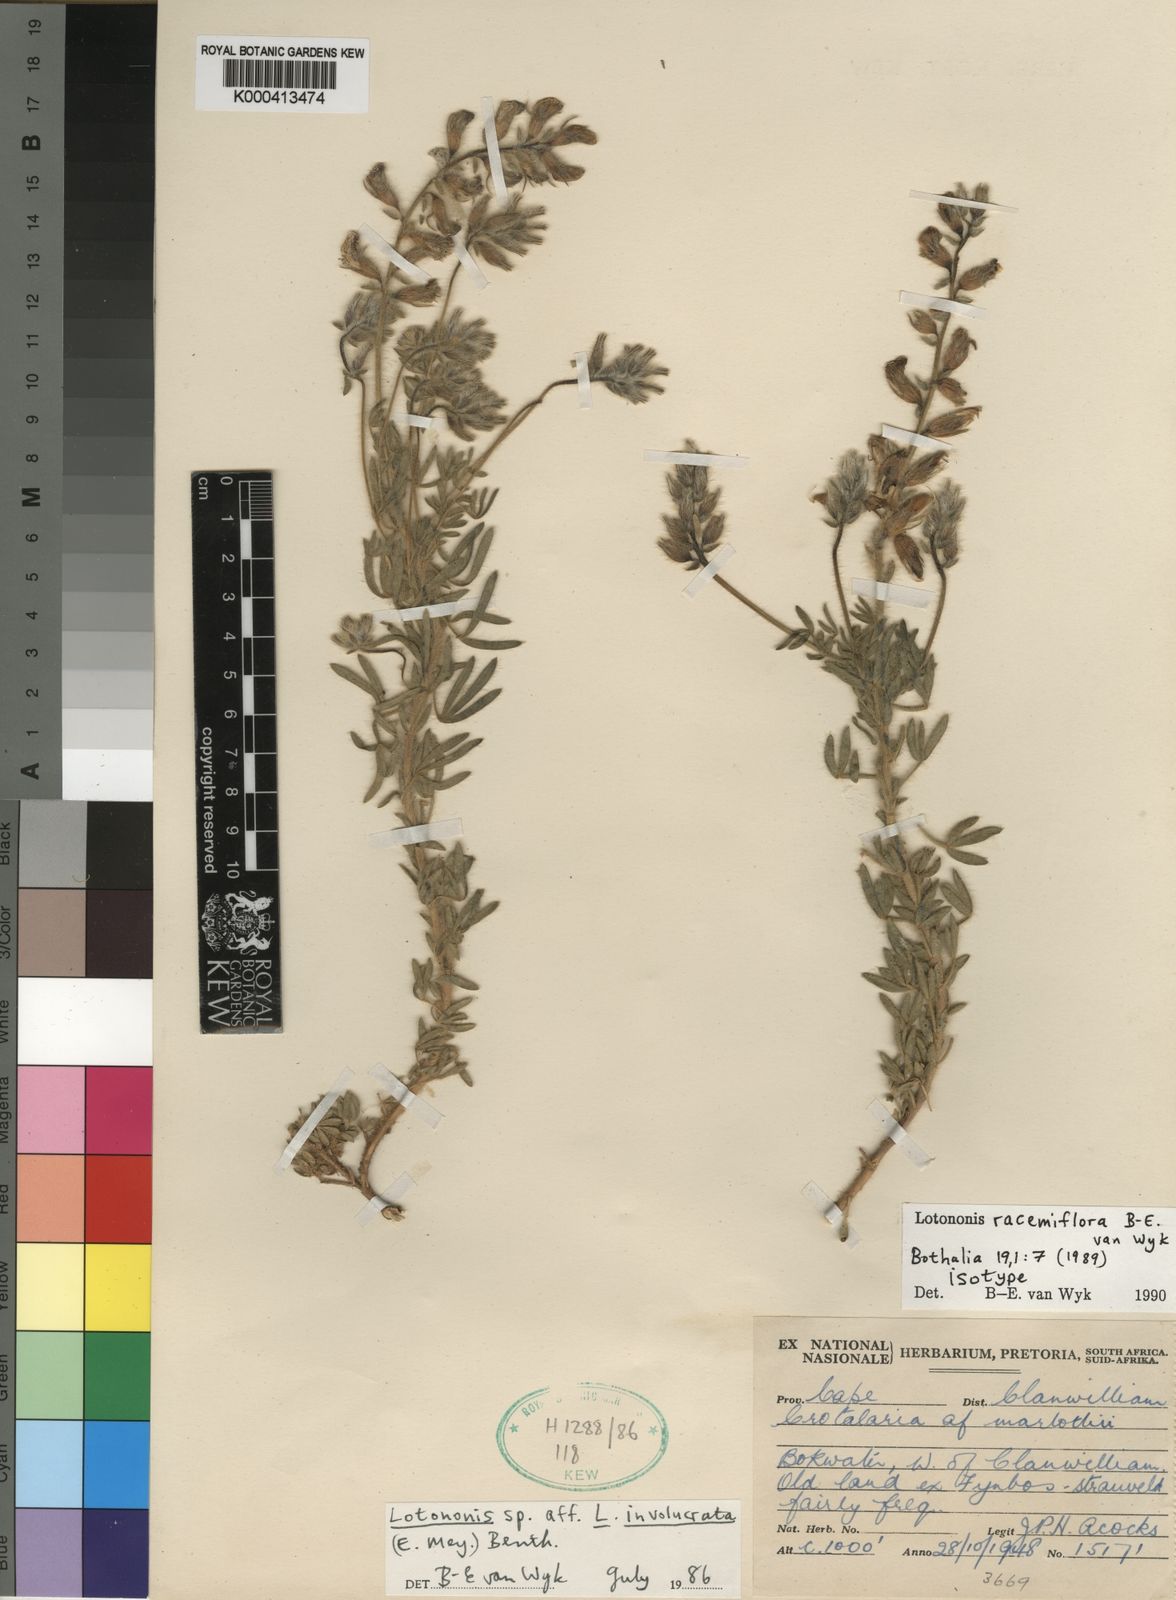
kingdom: Plantae
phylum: Tracheophyta
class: Magnoliopsida
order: Fabales
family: Fabaceae
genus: Lotononis
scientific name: Lotononis racemiflora
